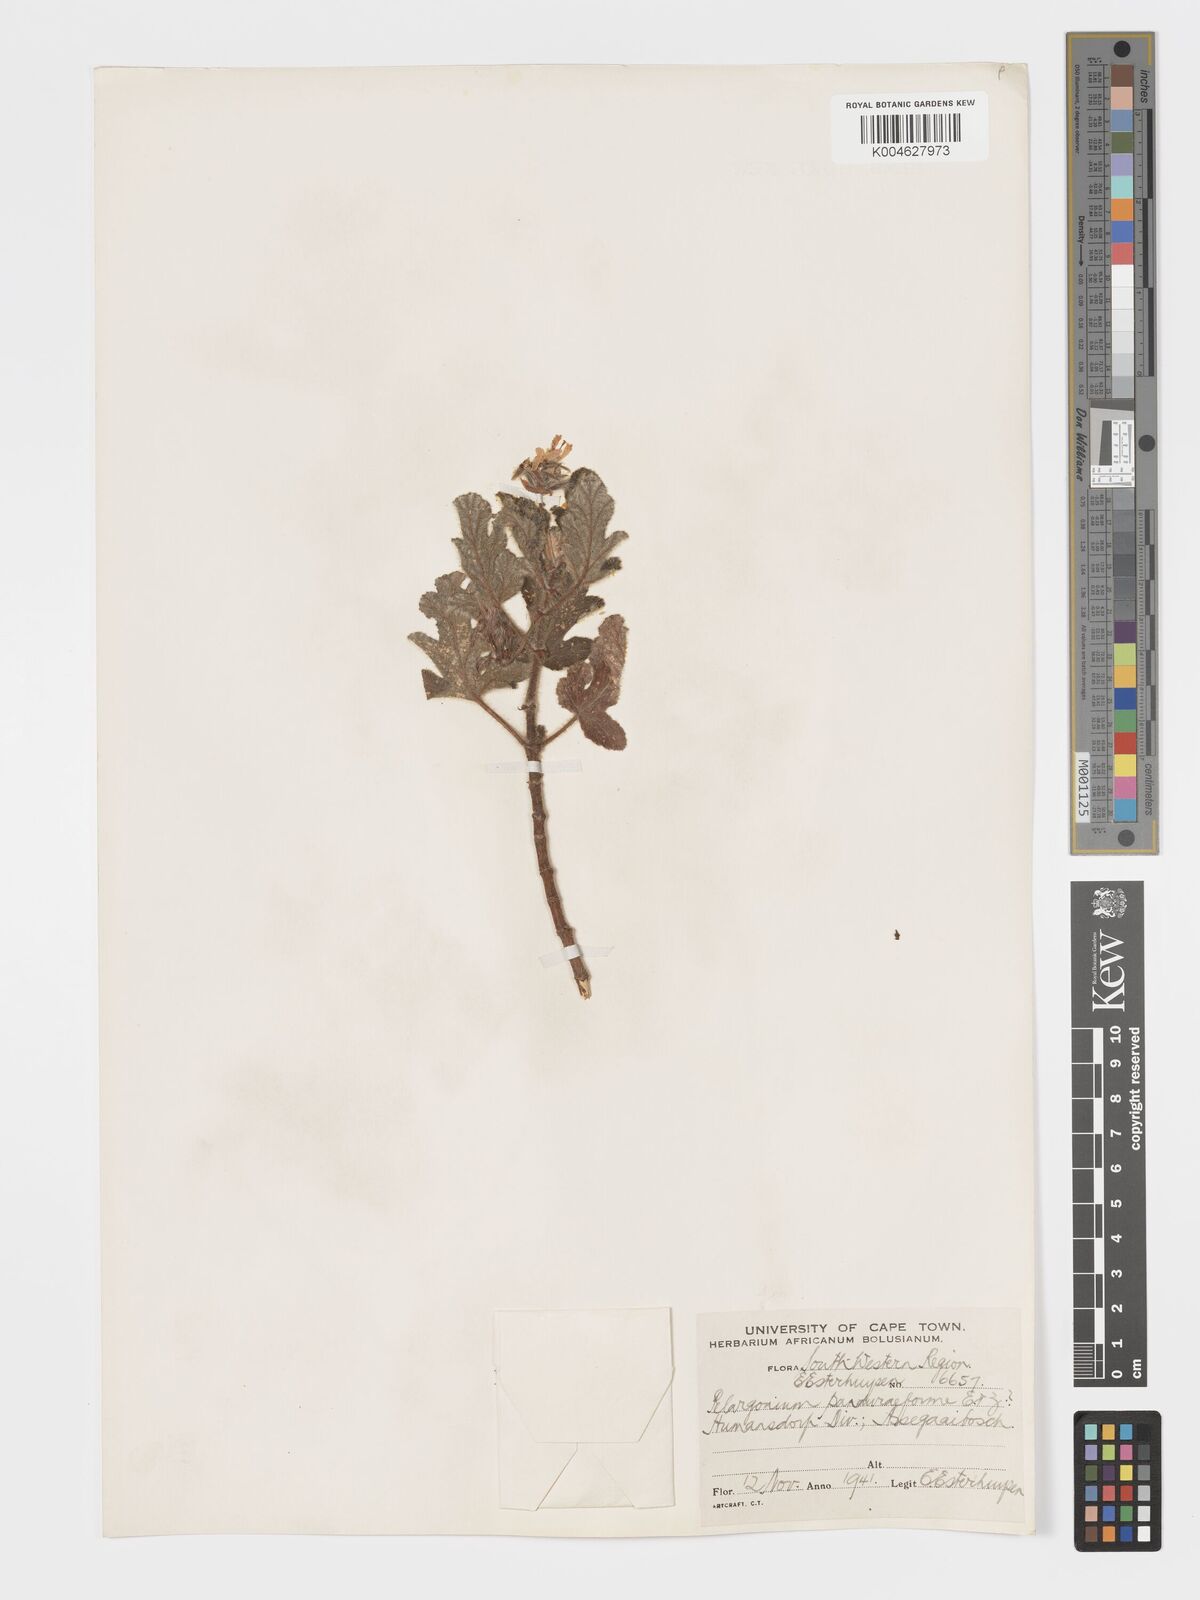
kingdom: Plantae
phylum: Tracheophyta
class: Magnoliopsida
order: Geraniales
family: Geraniaceae
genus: Pelargonium
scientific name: Pelargonium panduriforme
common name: Oakleaf garden geranium
